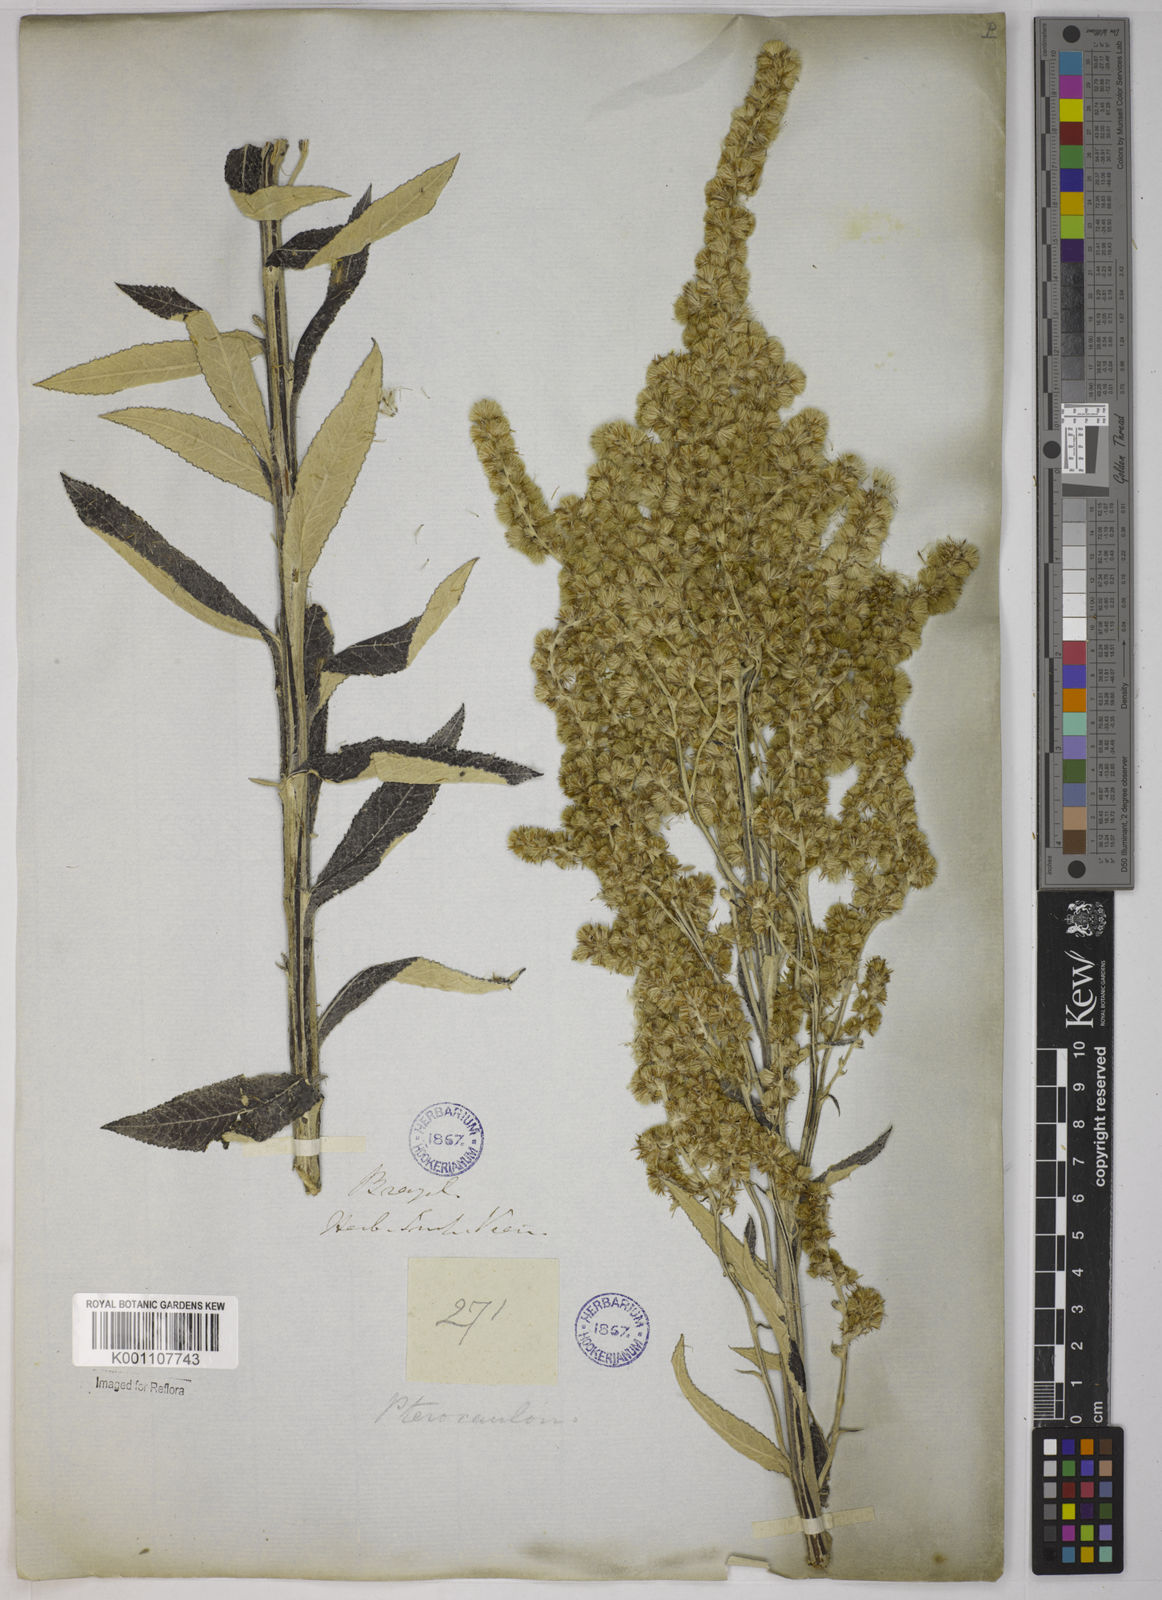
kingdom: Plantae
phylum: Tracheophyta
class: Magnoliopsida
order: Asterales
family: Asteraceae
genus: Pterocaulon
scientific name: Pterocaulon alopecuroides
